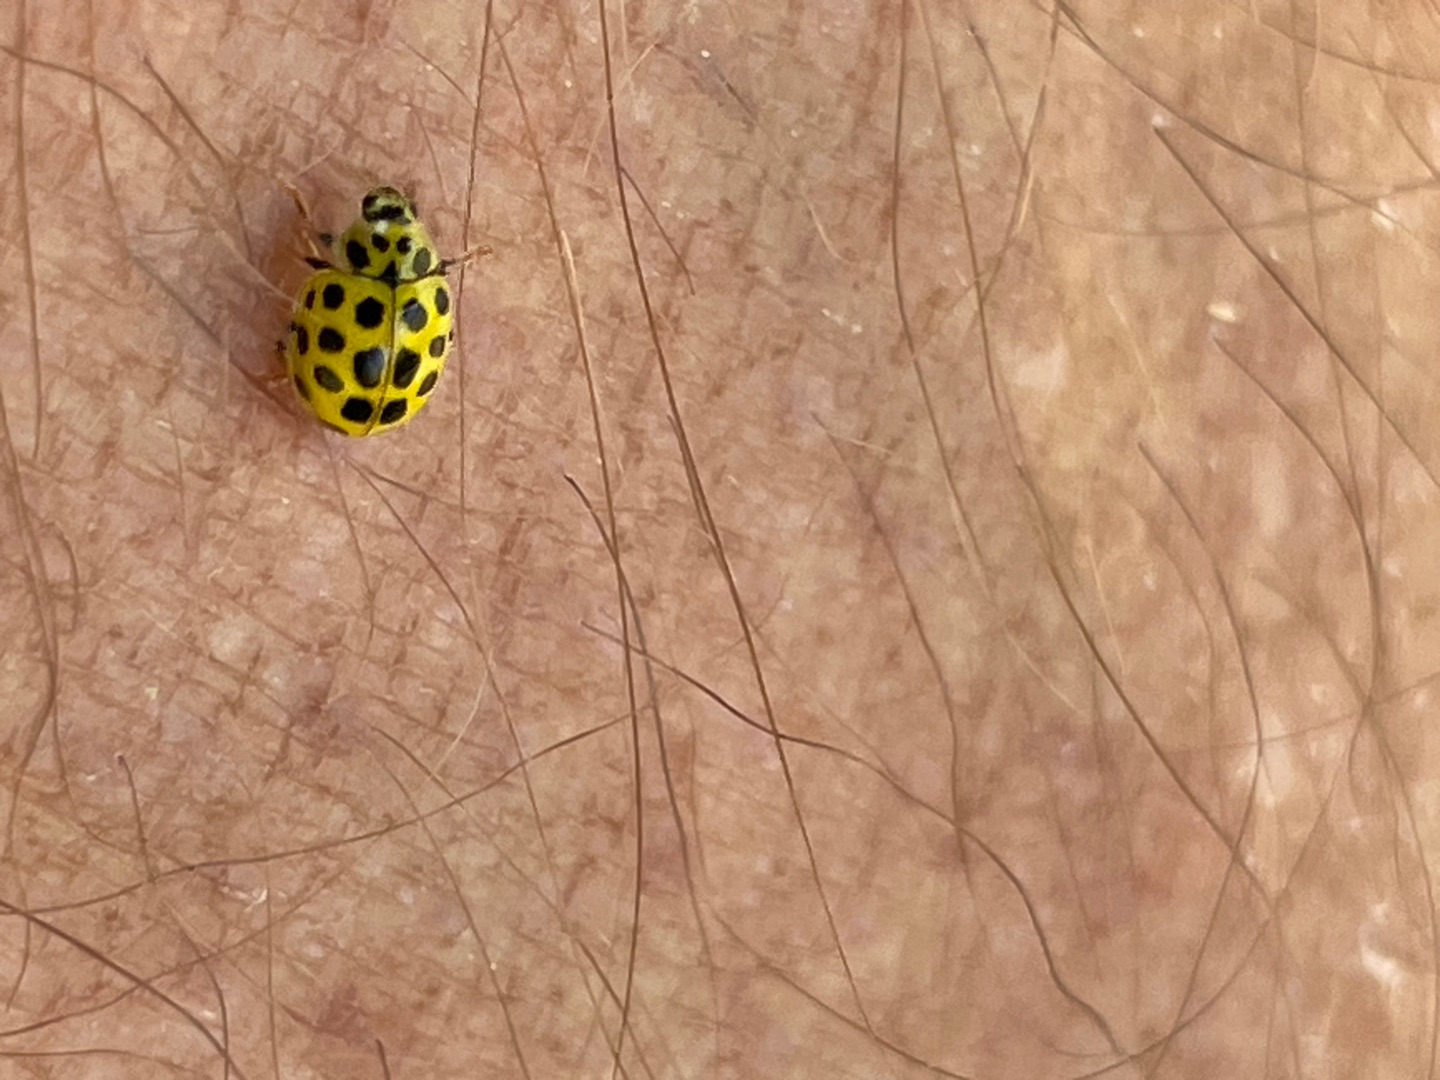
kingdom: Animalia
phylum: Arthropoda
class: Insecta
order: Coleoptera
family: Coccinellidae
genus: Psyllobora
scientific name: Psyllobora vigintiduopunctata
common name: Toogtyveplettet mariehøne
